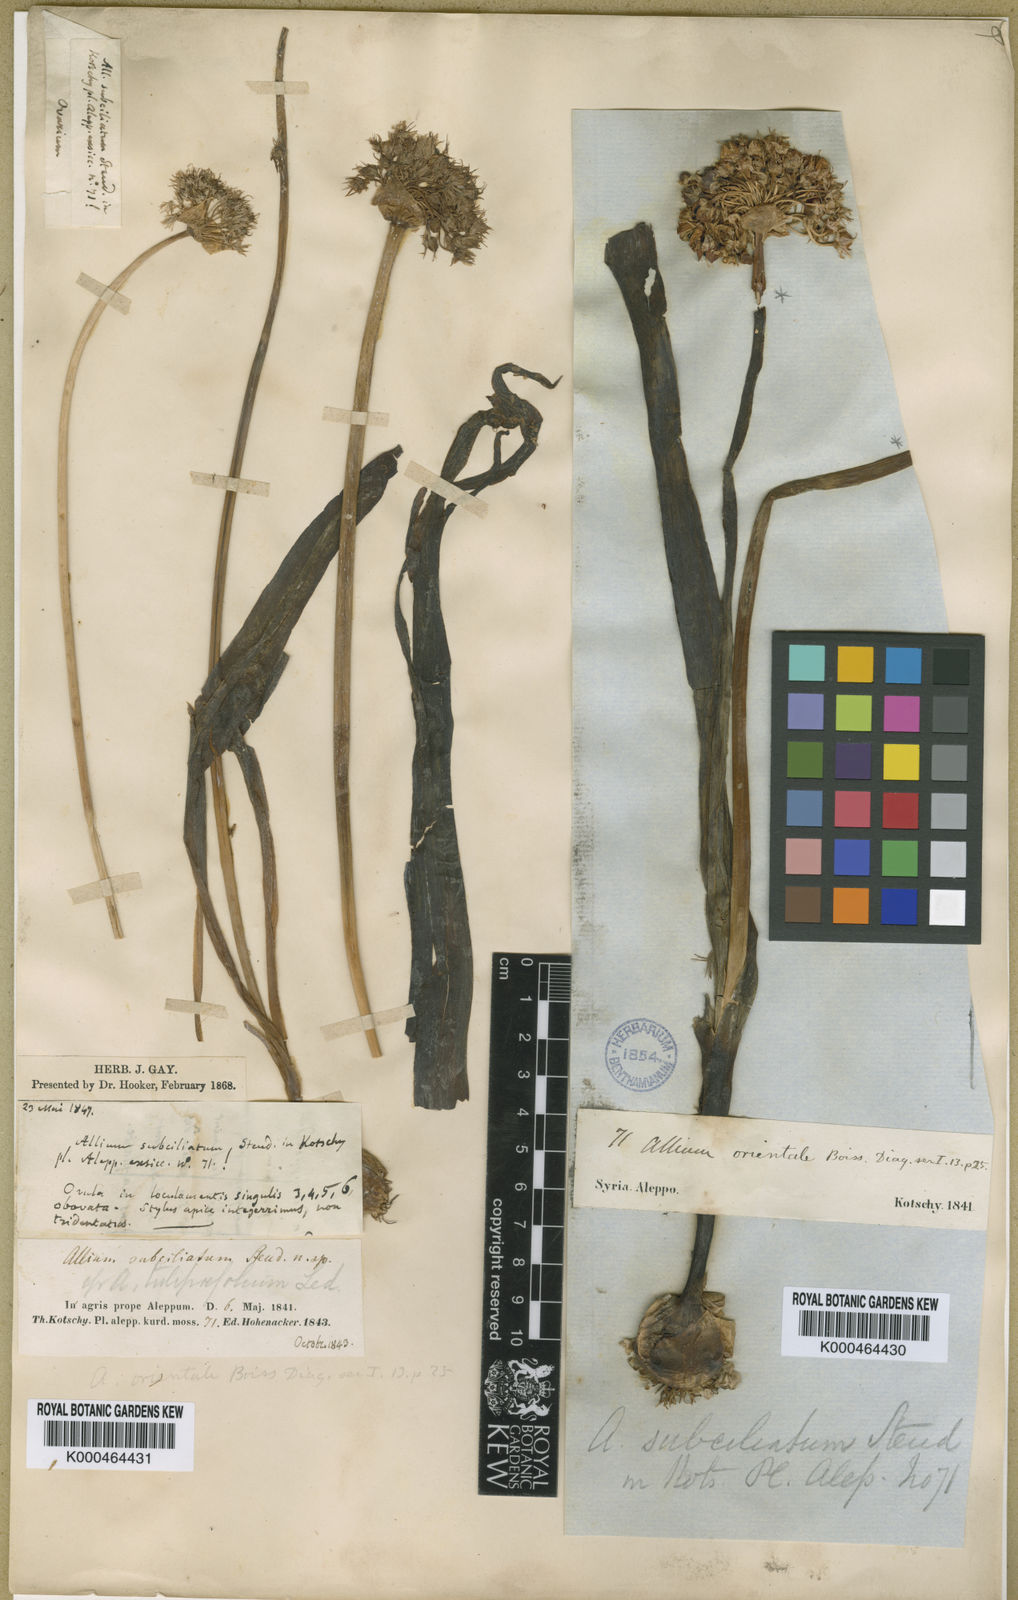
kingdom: Plantae
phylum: Tracheophyta
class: Liliopsida
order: Asparagales
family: Amaryllidaceae
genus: Allium
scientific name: Allium orientale
